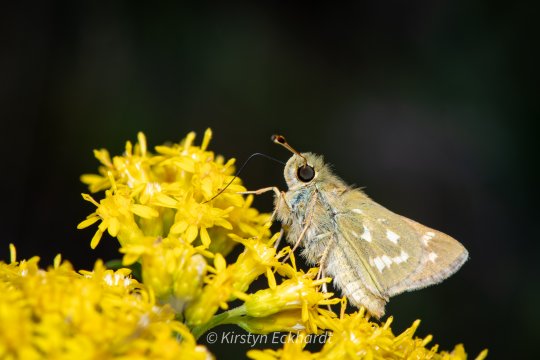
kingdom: Animalia
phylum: Arthropoda
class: Insecta
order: Lepidoptera
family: Hesperiidae
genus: Hesperia
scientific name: Hesperia comma
